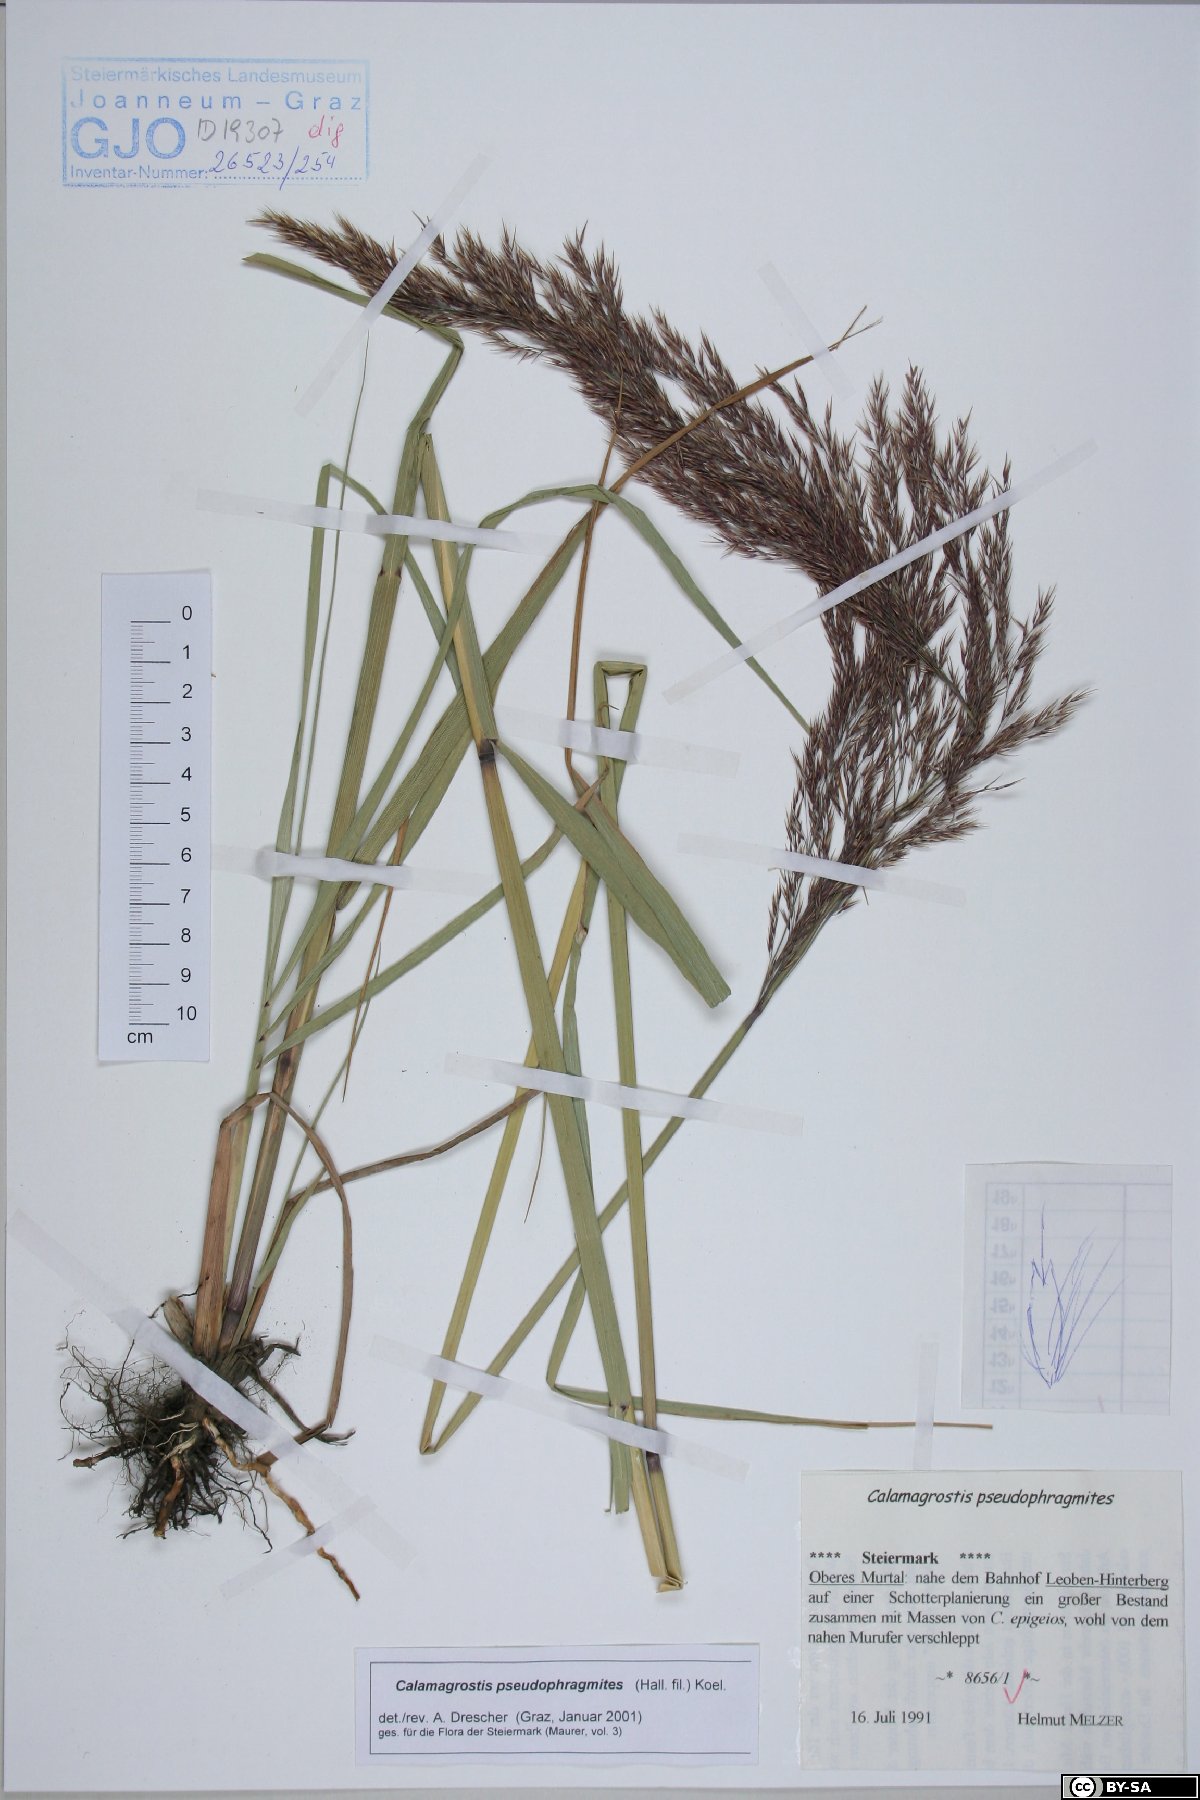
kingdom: Plantae
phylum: Tracheophyta
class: Liliopsida
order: Poales
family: Poaceae
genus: Calamagrostis
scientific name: Calamagrostis pseudophragmites
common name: Coastal small-reed
